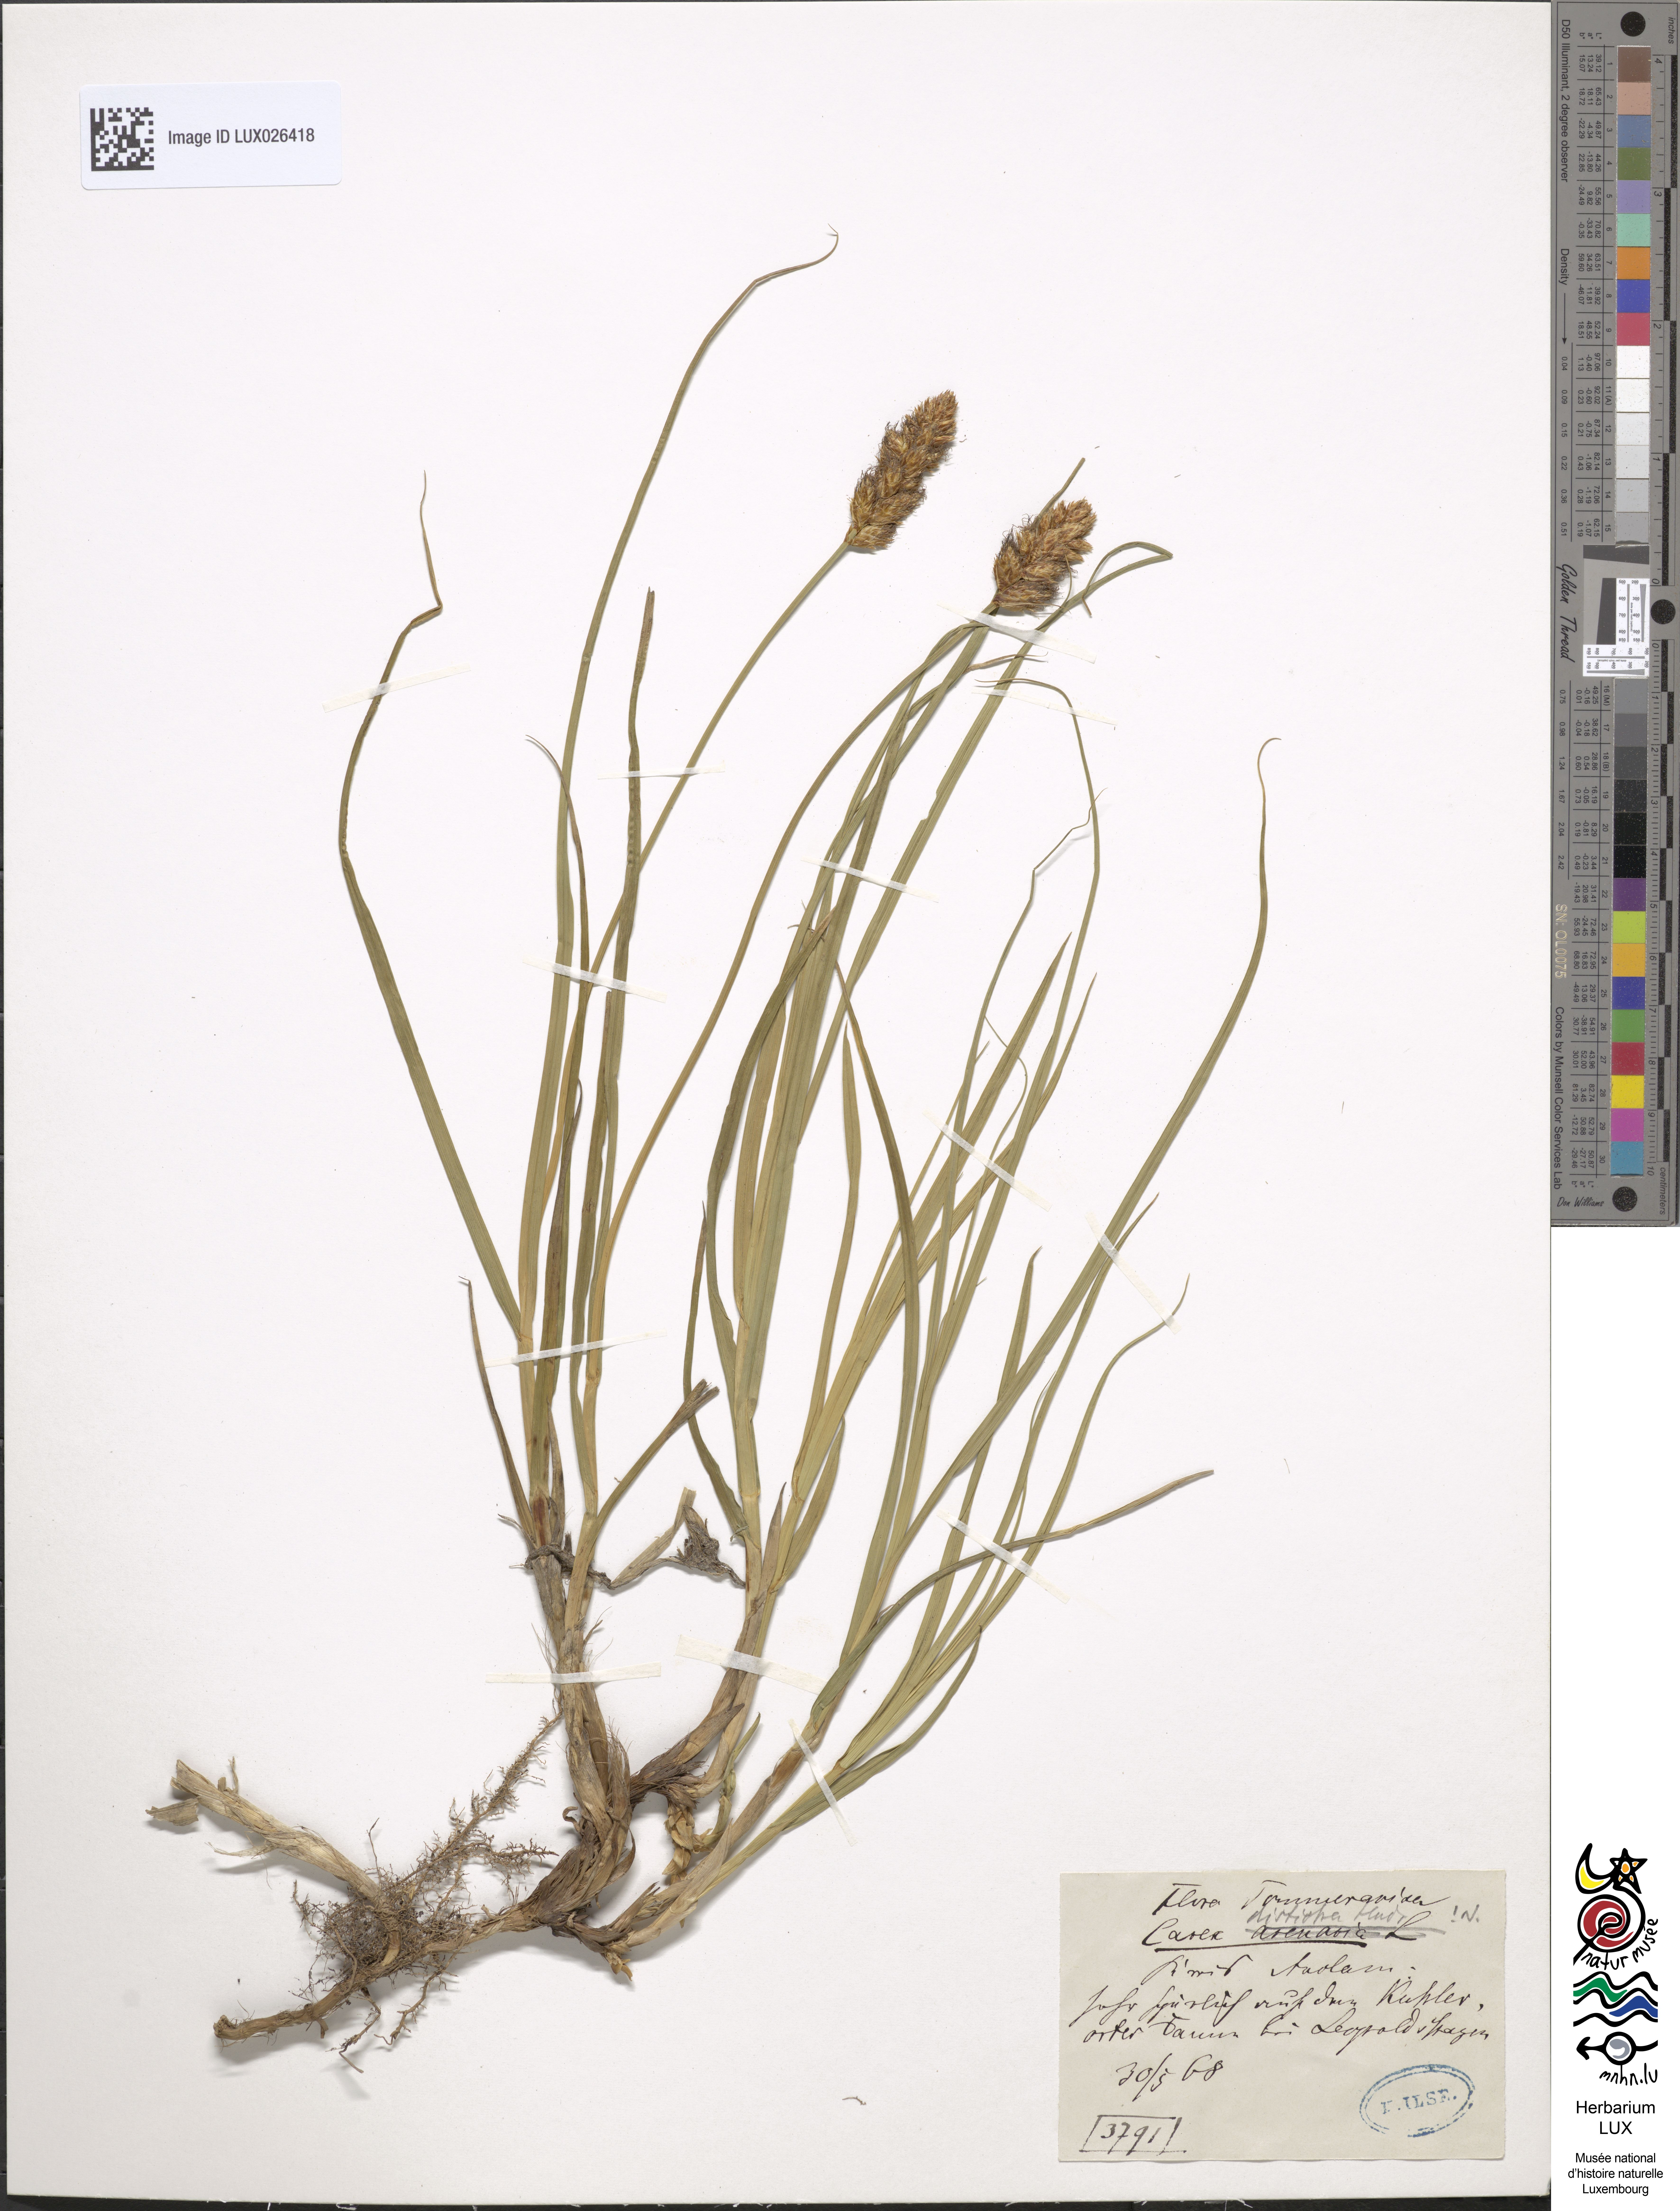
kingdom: Plantae
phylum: Tracheophyta
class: Liliopsida
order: Poales
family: Cyperaceae
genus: Carex
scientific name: Carex disticha
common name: Brown sedge
